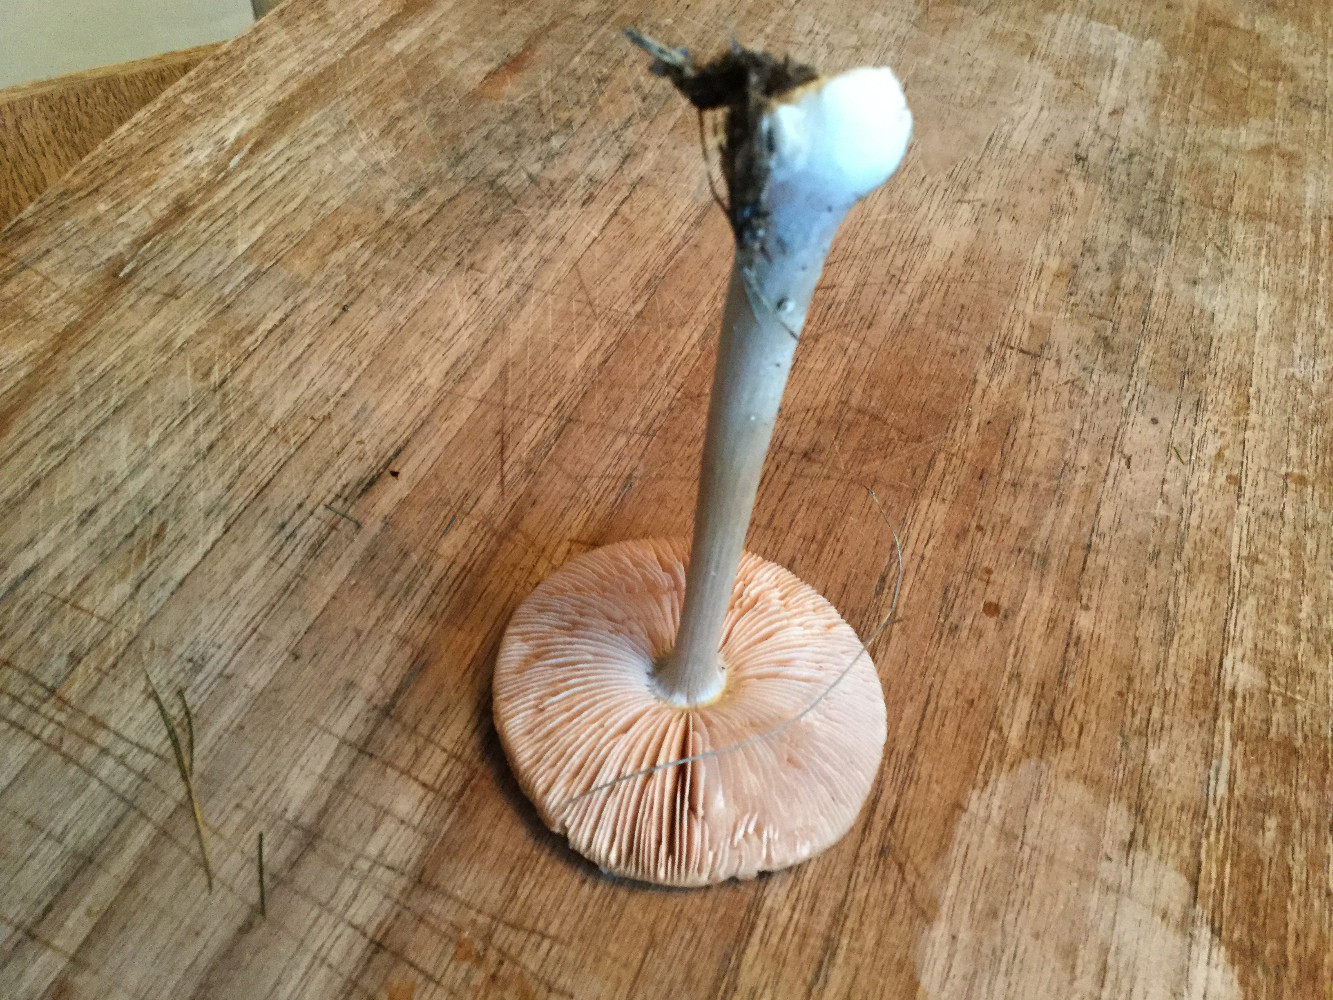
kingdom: Fungi
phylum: Basidiomycota
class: Agaricomycetes
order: Agaricales
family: Pluteaceae
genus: Volvopluteus
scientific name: Volvopluteus gloiocephalus
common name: høj posesvamp
